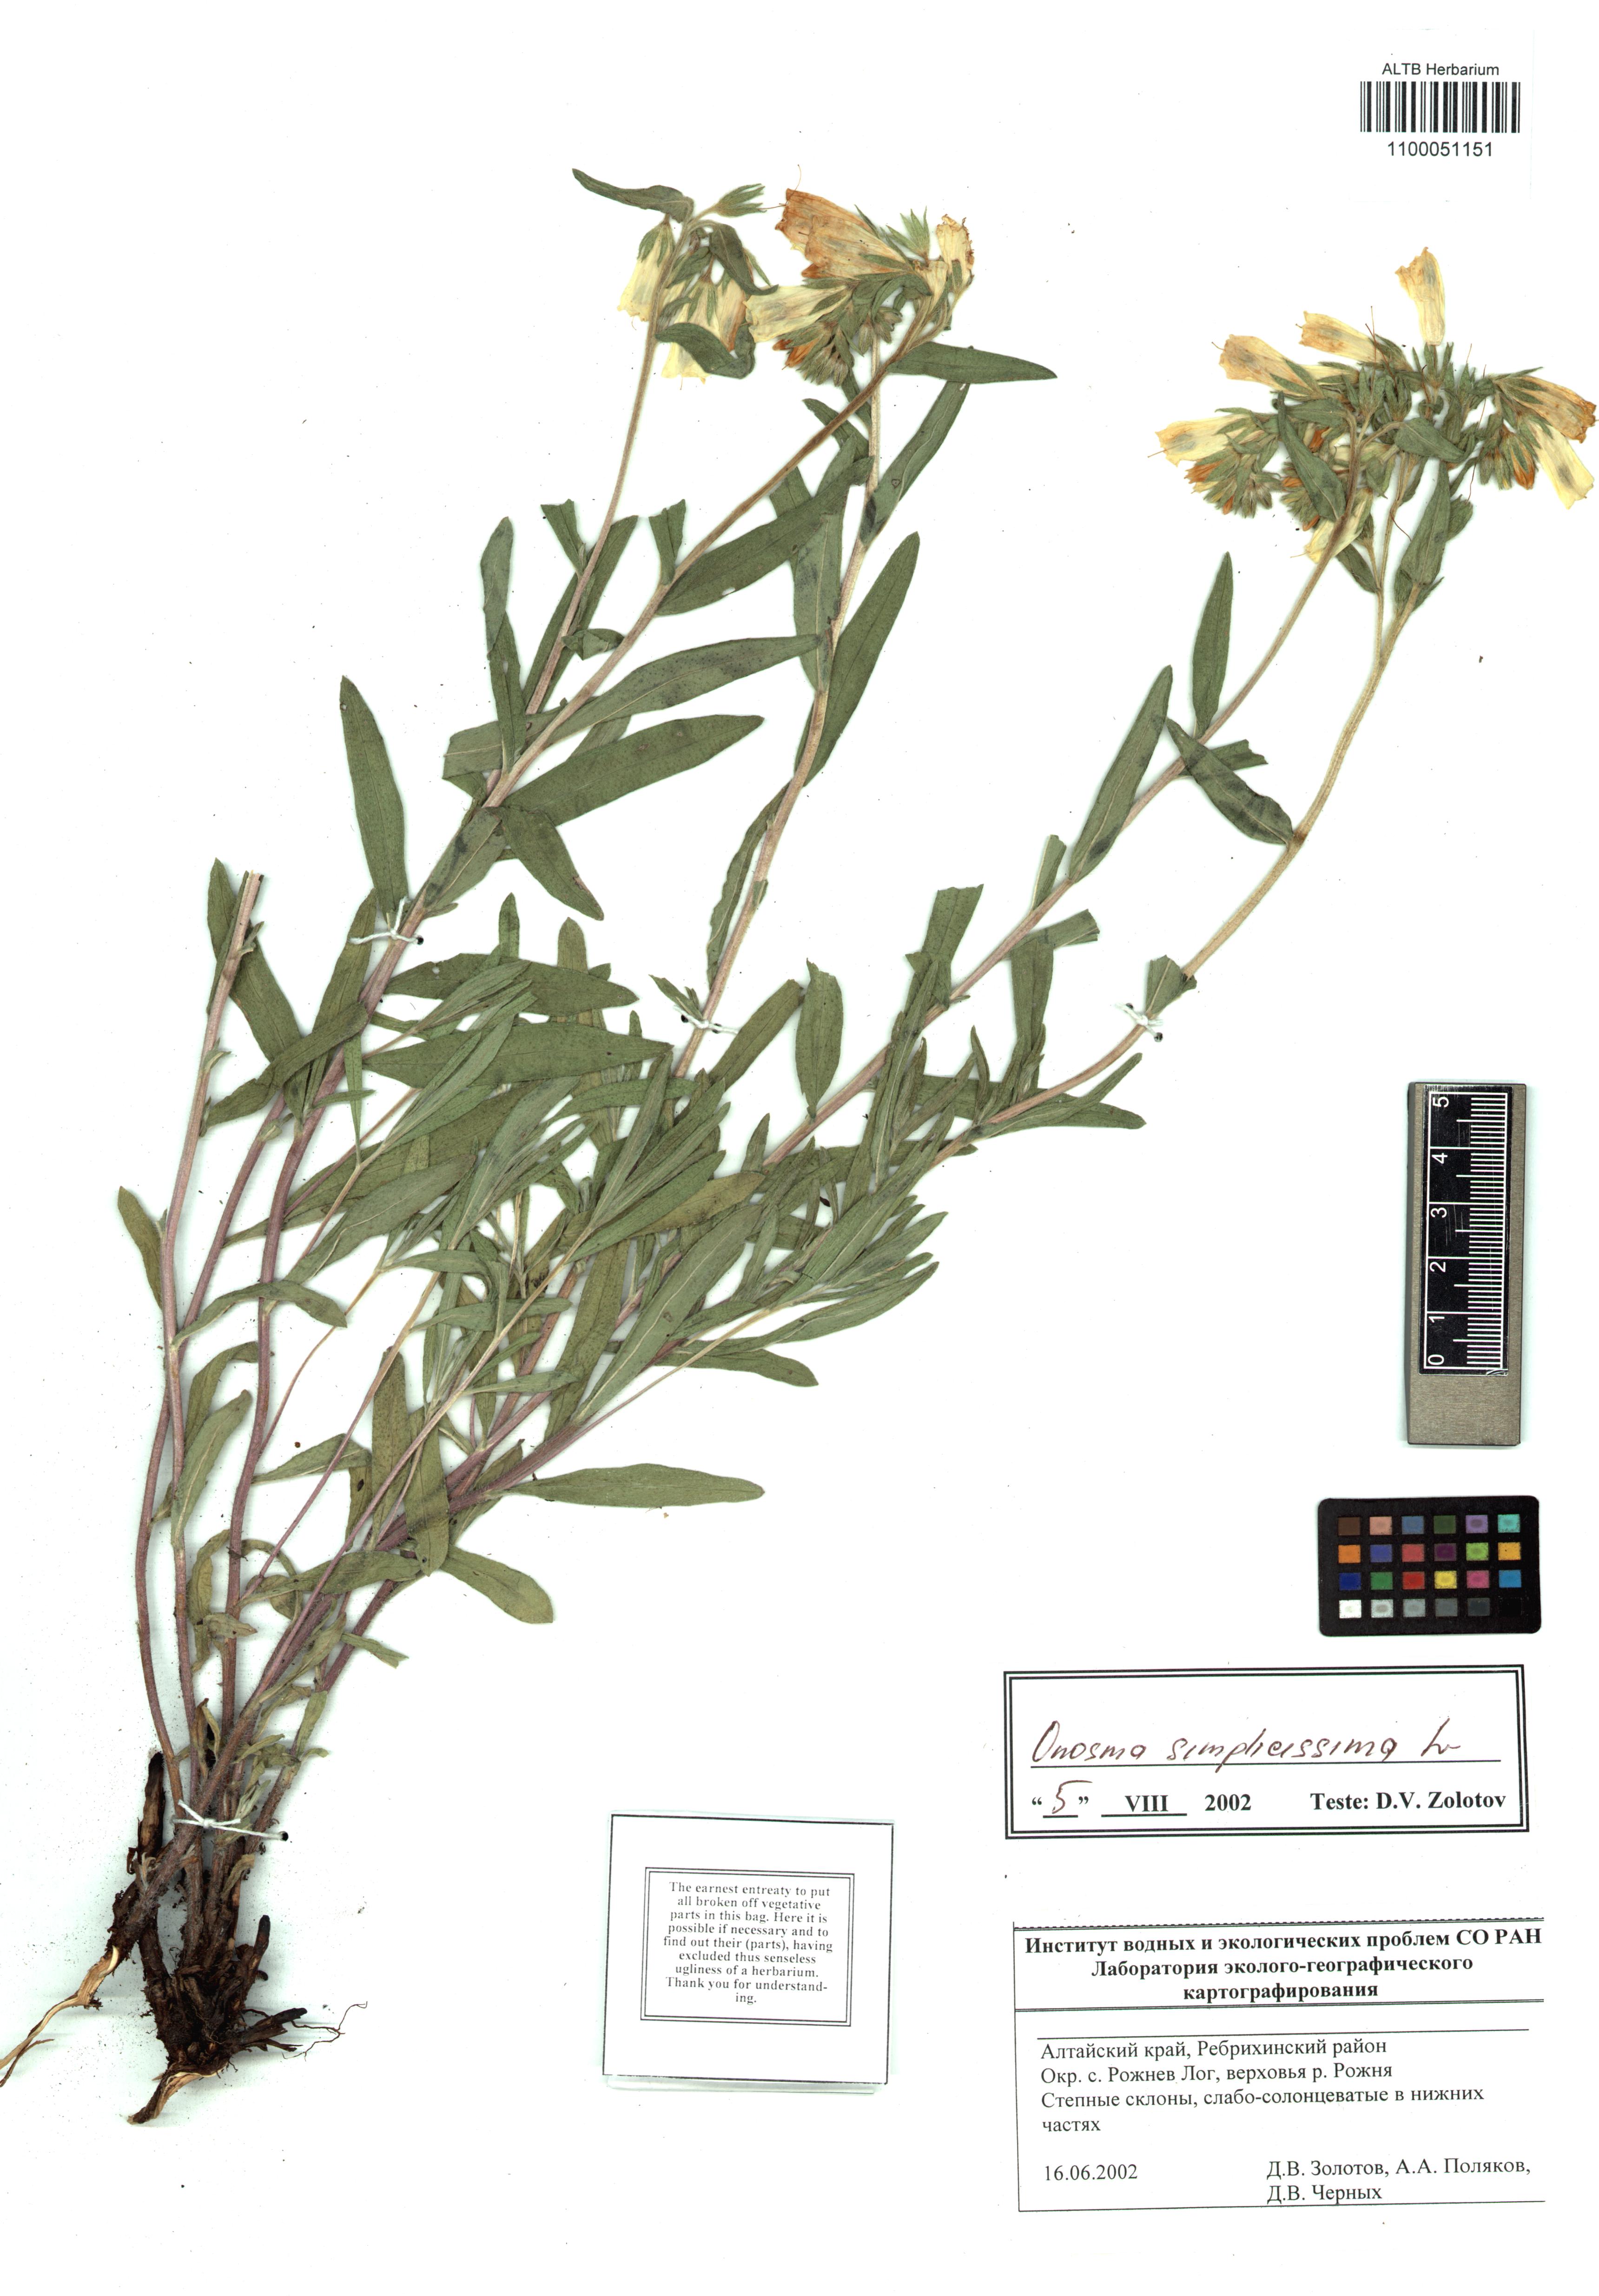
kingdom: Plantae
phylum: Tracheophyta
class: Magnoliopsida
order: Boraginales
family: Boraginaceae
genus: Onosma
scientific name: Onosma simplicissima
